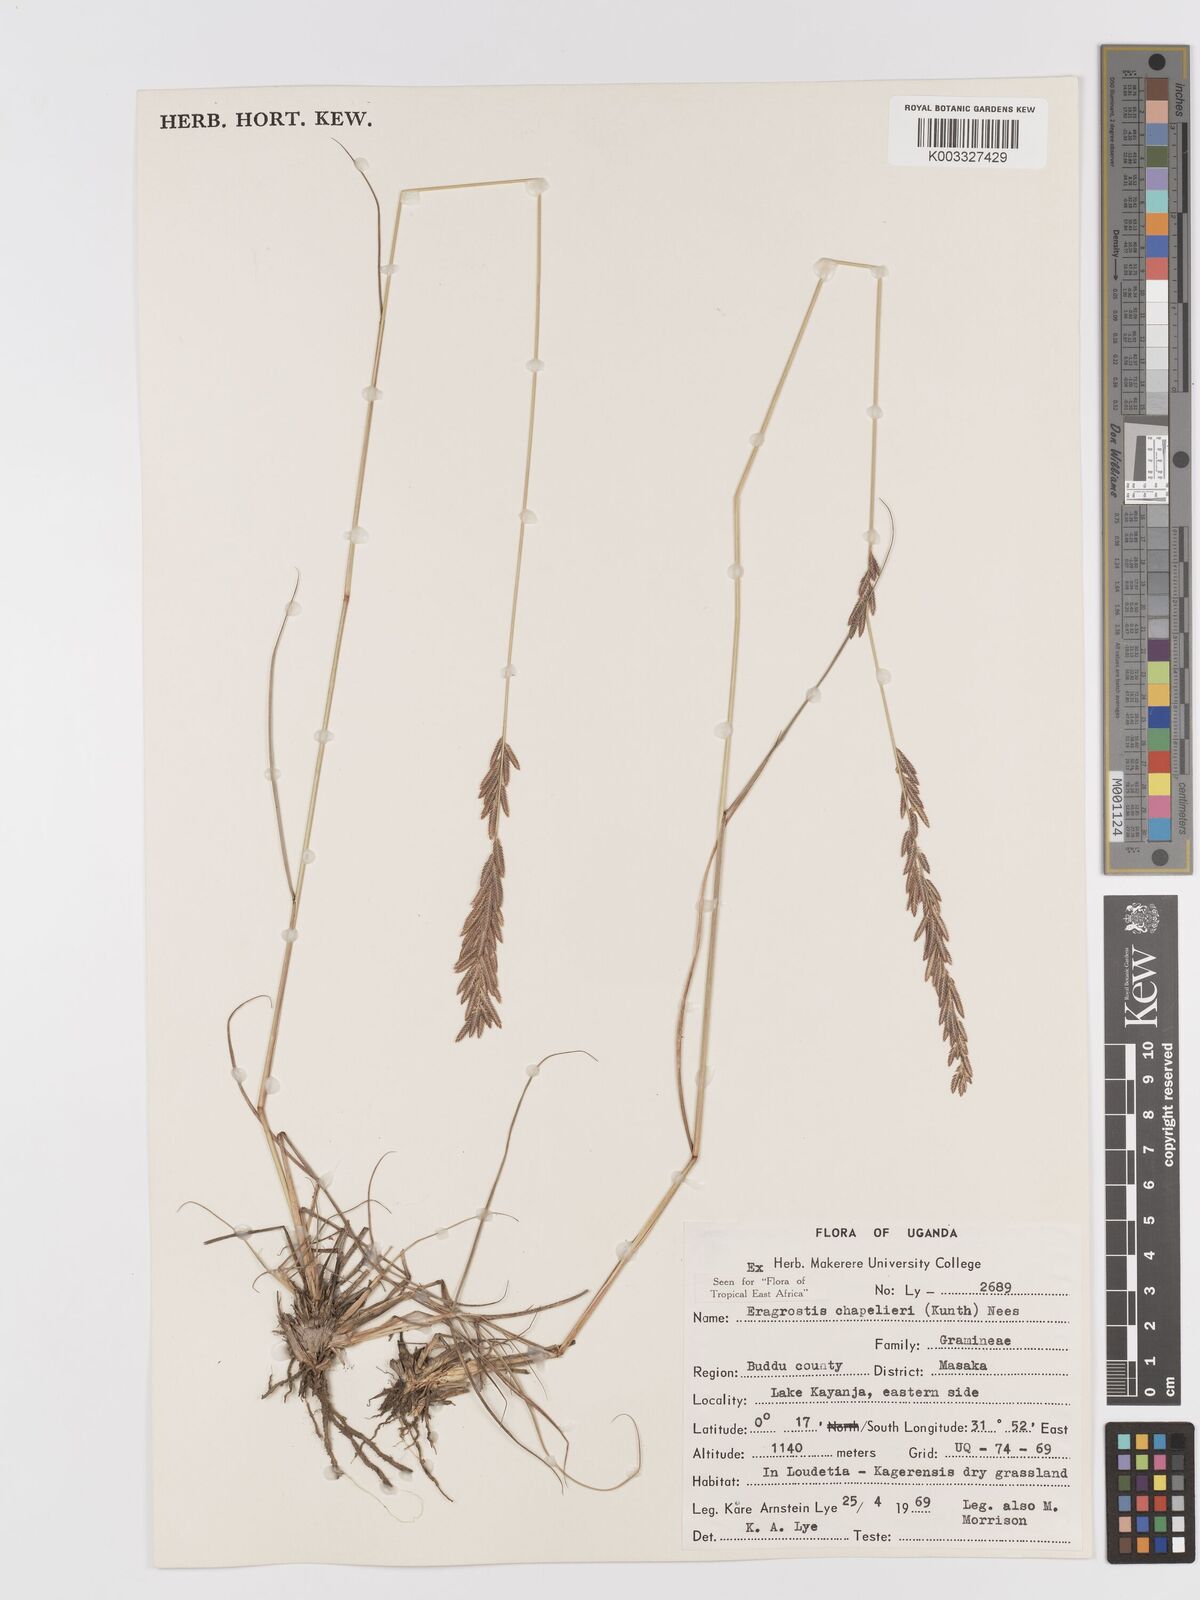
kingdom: Plantae
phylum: Tracheophyta
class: Liliopsida
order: Poales
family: Poaceae
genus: Eragrostis
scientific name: Eragrostis chapelieri
